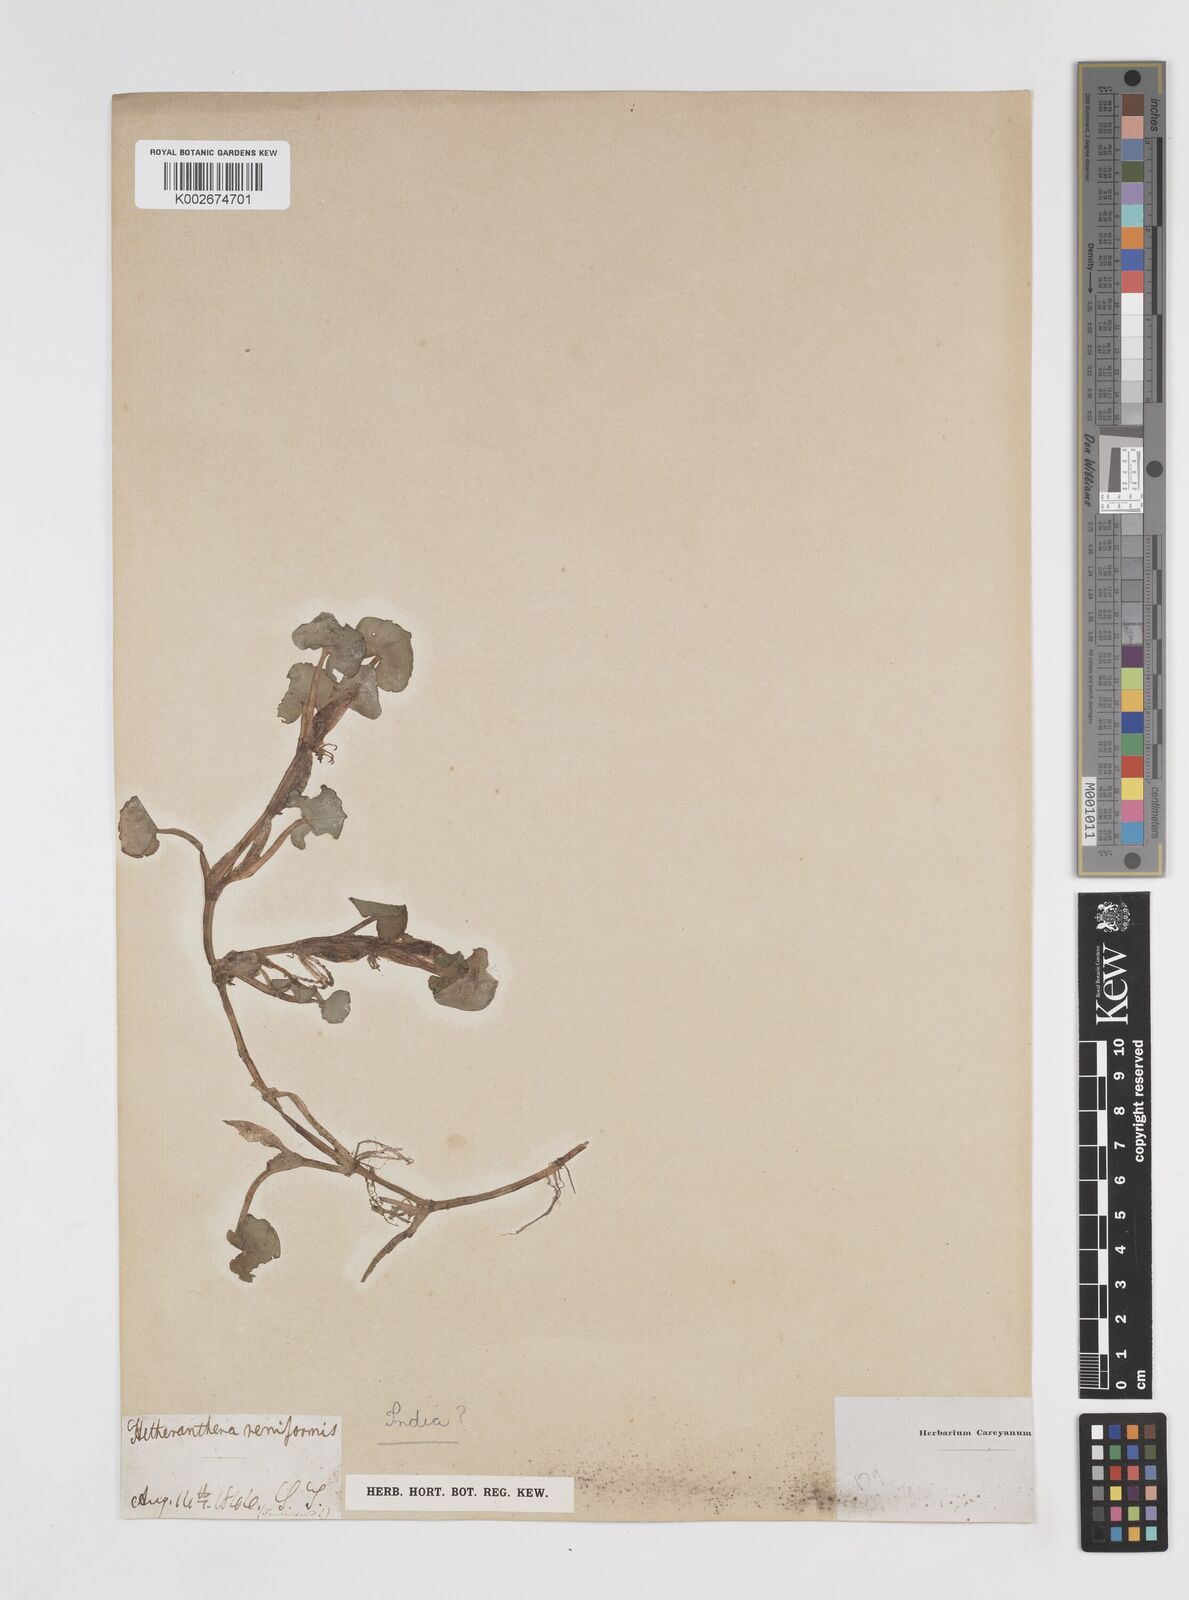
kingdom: Plantae
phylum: Tracheophyta
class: Liliopsida
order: Commelinales
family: Pontederiaceae
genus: Heteranthera
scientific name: Heteranthera reniformis
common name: Kidneyleaf mudplantain
